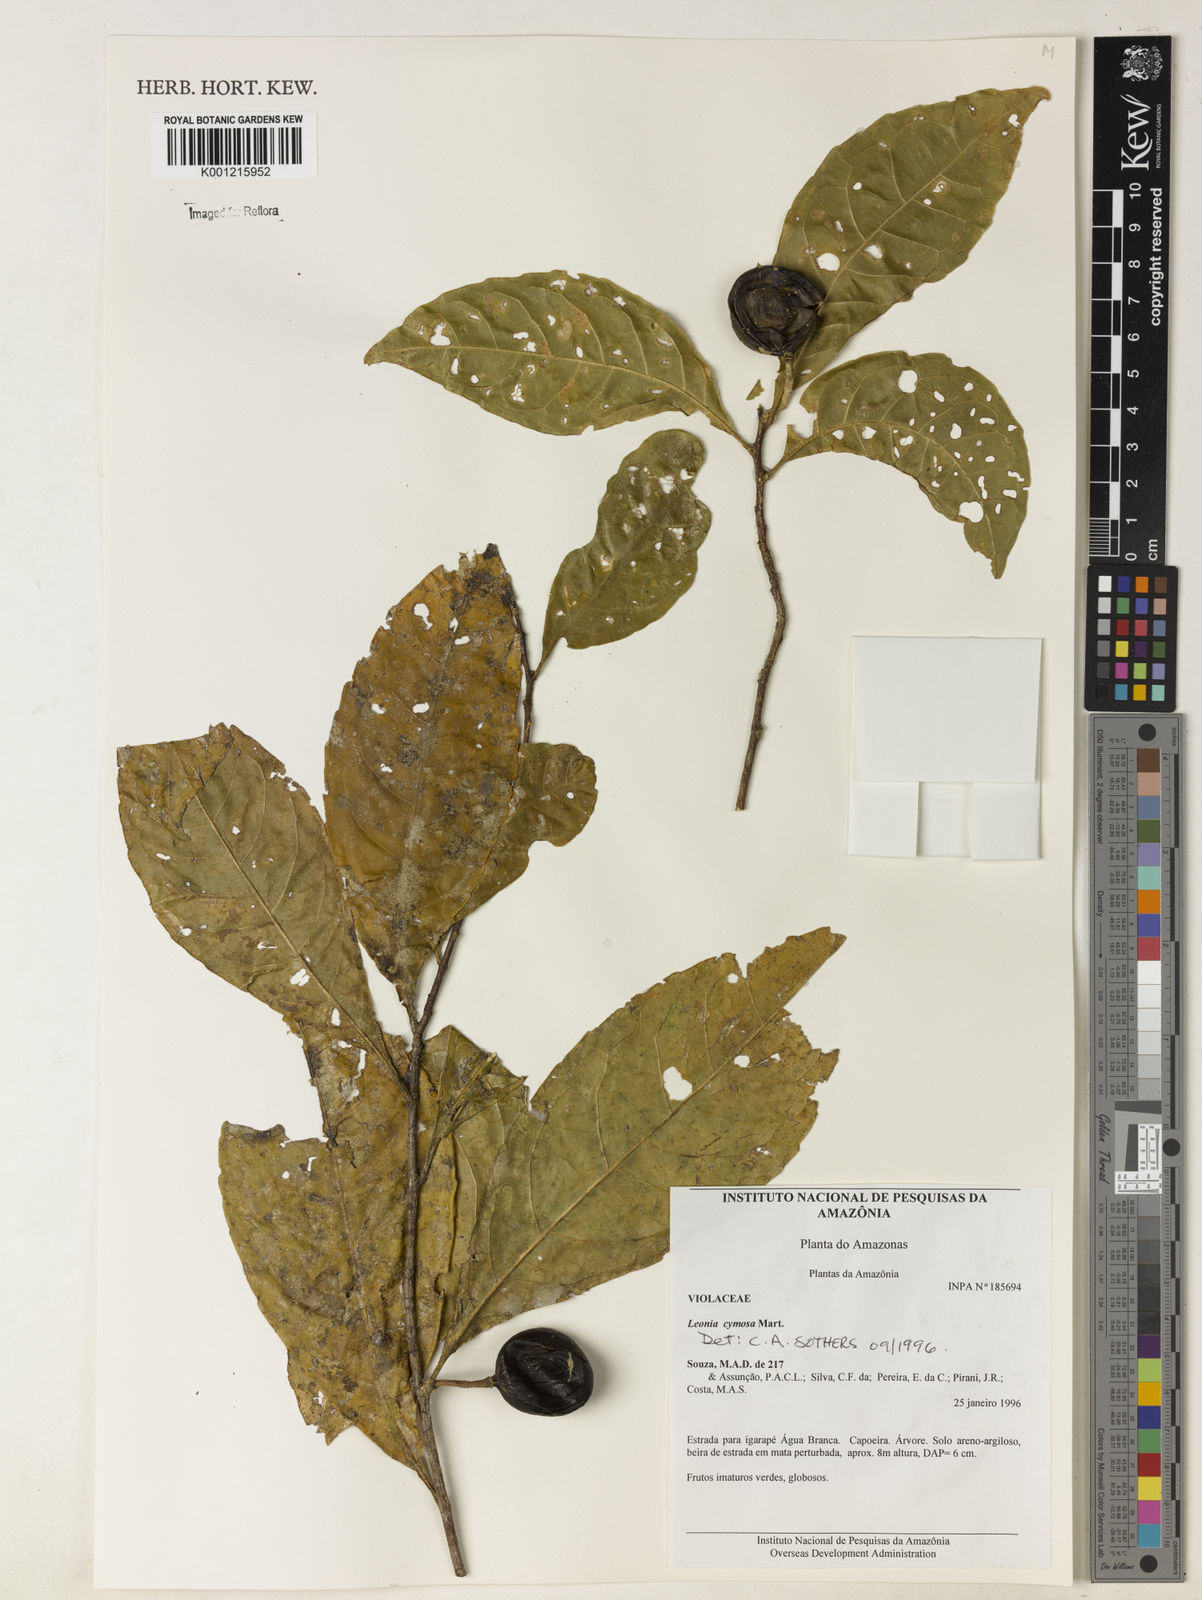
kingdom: Plantae
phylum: Tracheophyta
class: Magnoliopsida
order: Malpighiales
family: Violaceae
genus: Leonia
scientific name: Leonia cymosa
